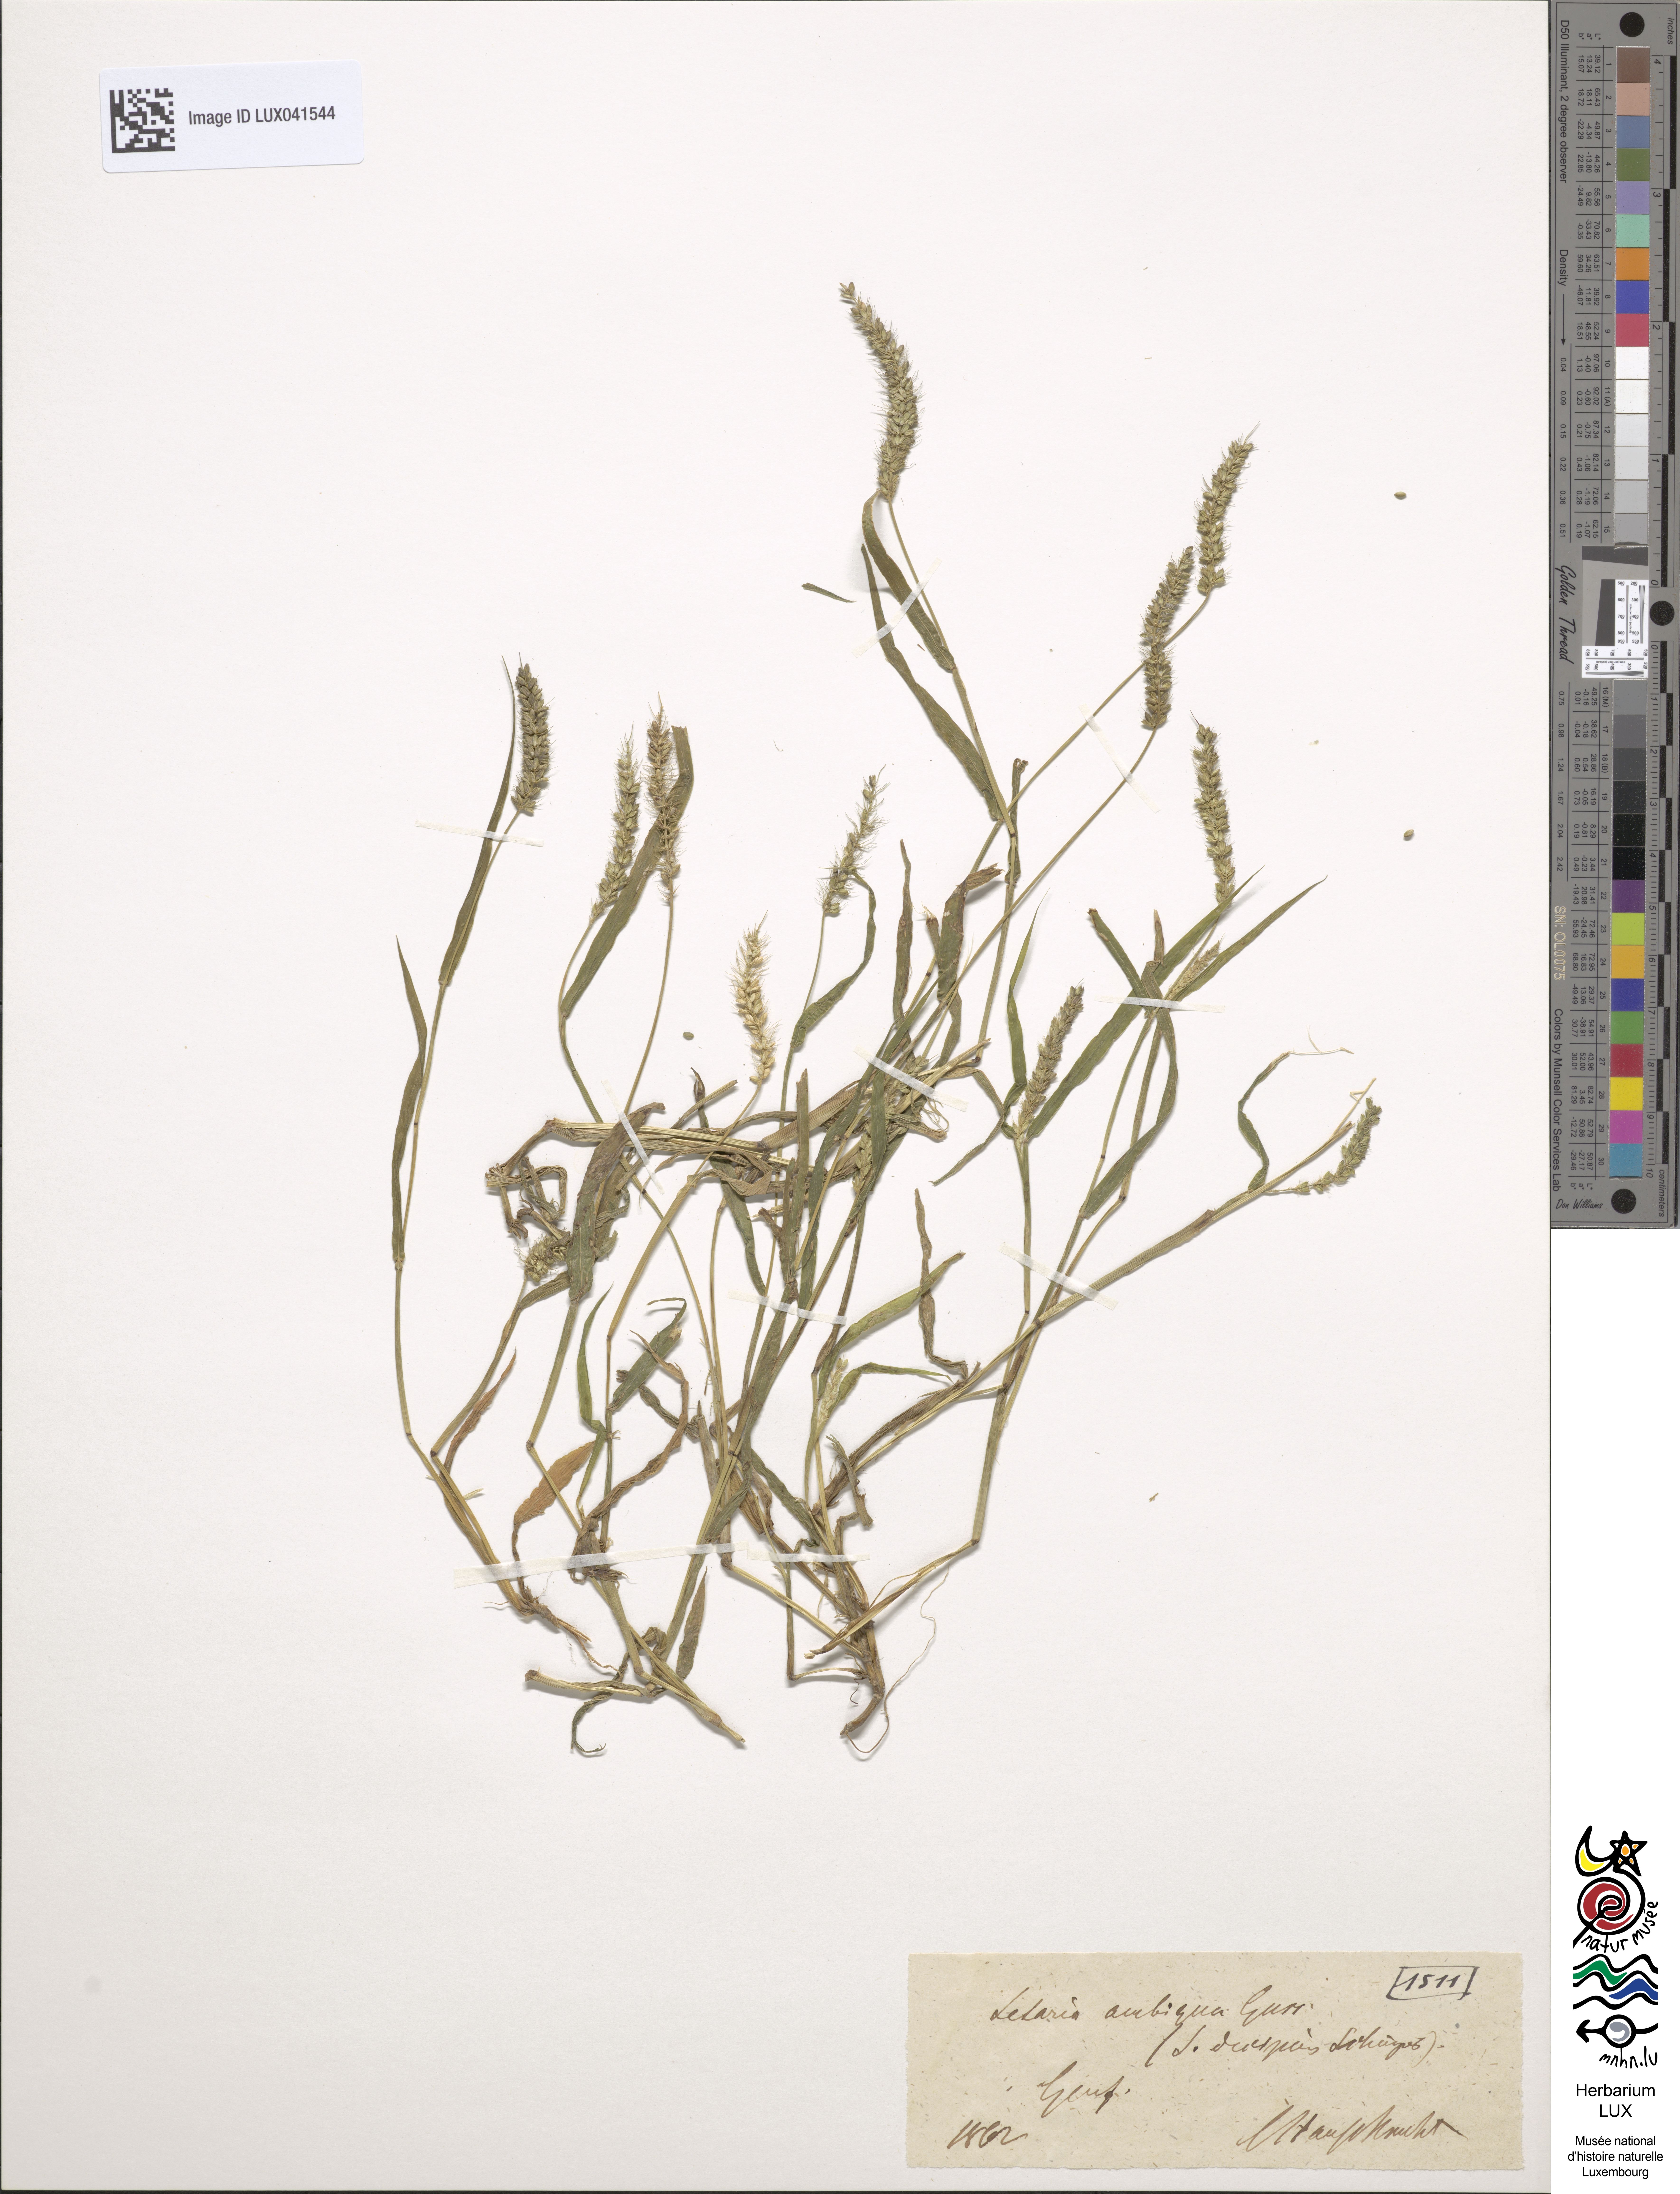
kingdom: Plantae
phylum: Tracheophyta
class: Liliopsida
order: Poales
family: Poaceae
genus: Setaria
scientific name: Setaria verticillata
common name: Hooked bristlegrass
